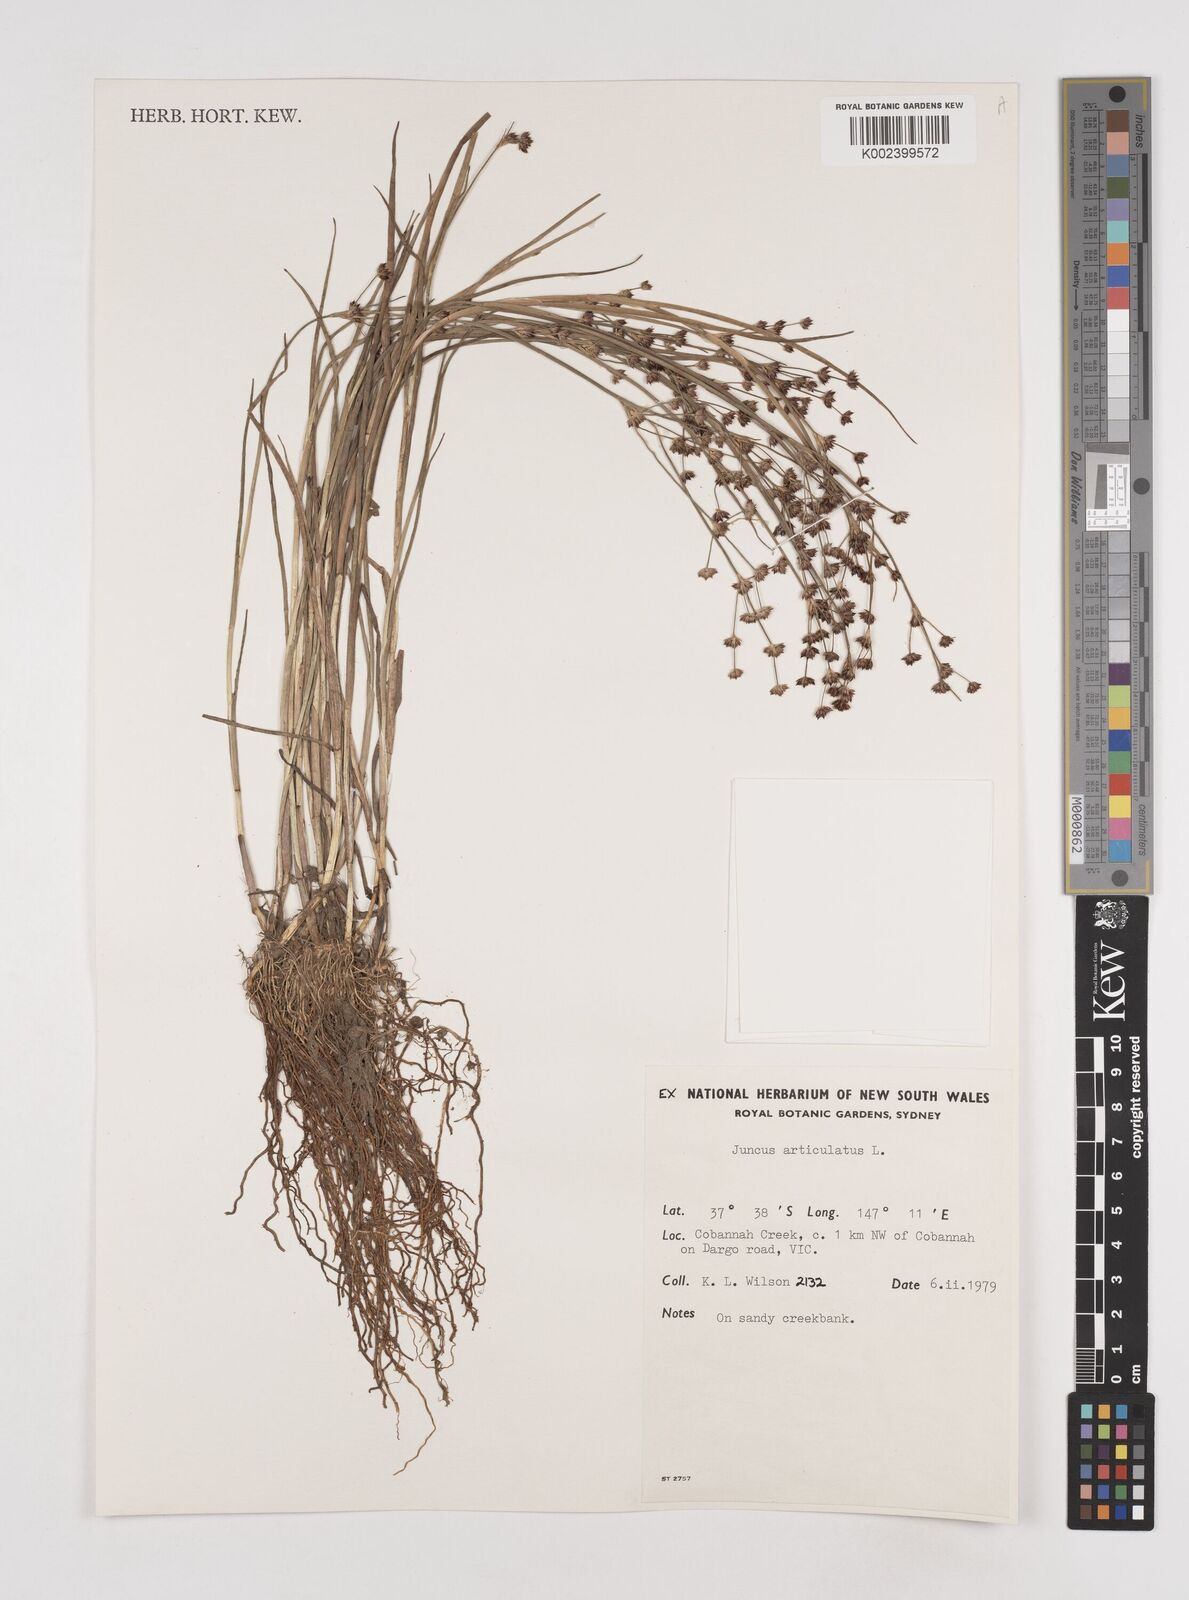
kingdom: Plantae
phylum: Tracheophyta
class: Liliopsida
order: Poales
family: Juncaceae
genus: Juncus
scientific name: Juncus articulatus
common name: Jointed rush
